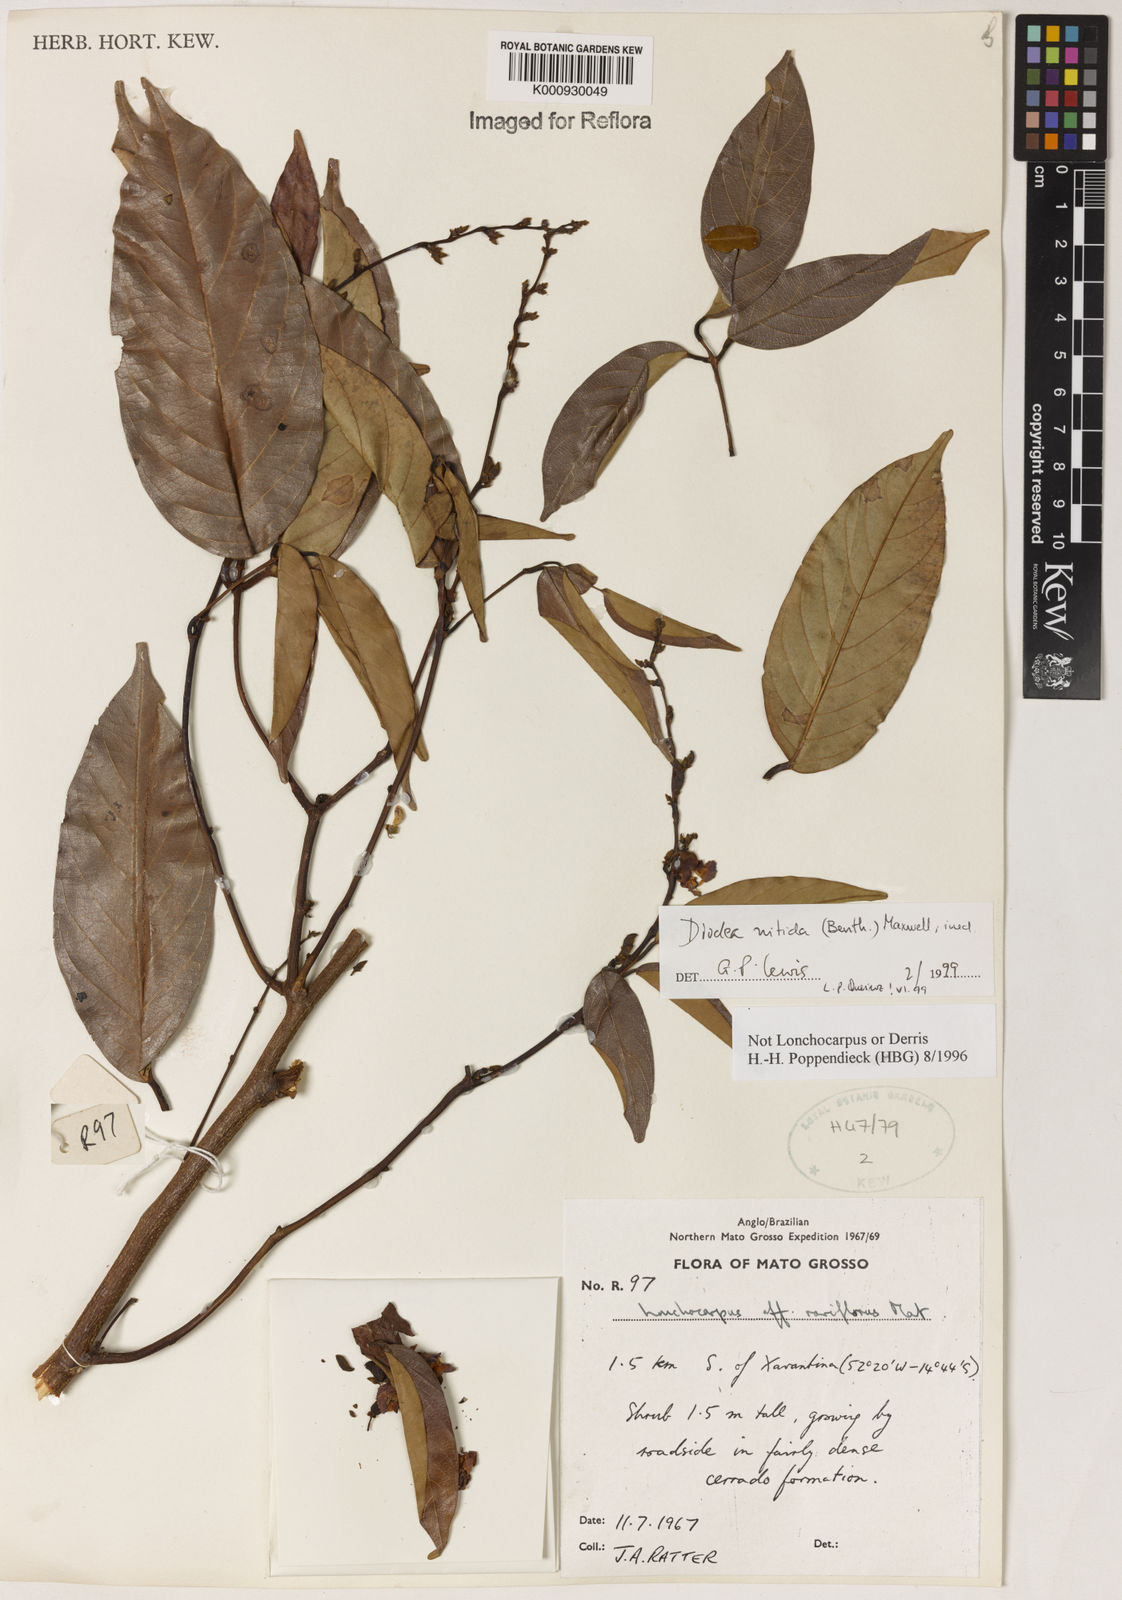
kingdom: Plantae
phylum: Tracheophyta
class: Magnoliopsida
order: Fabales
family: Fabaceae
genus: Dioclea
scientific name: Dioclea
